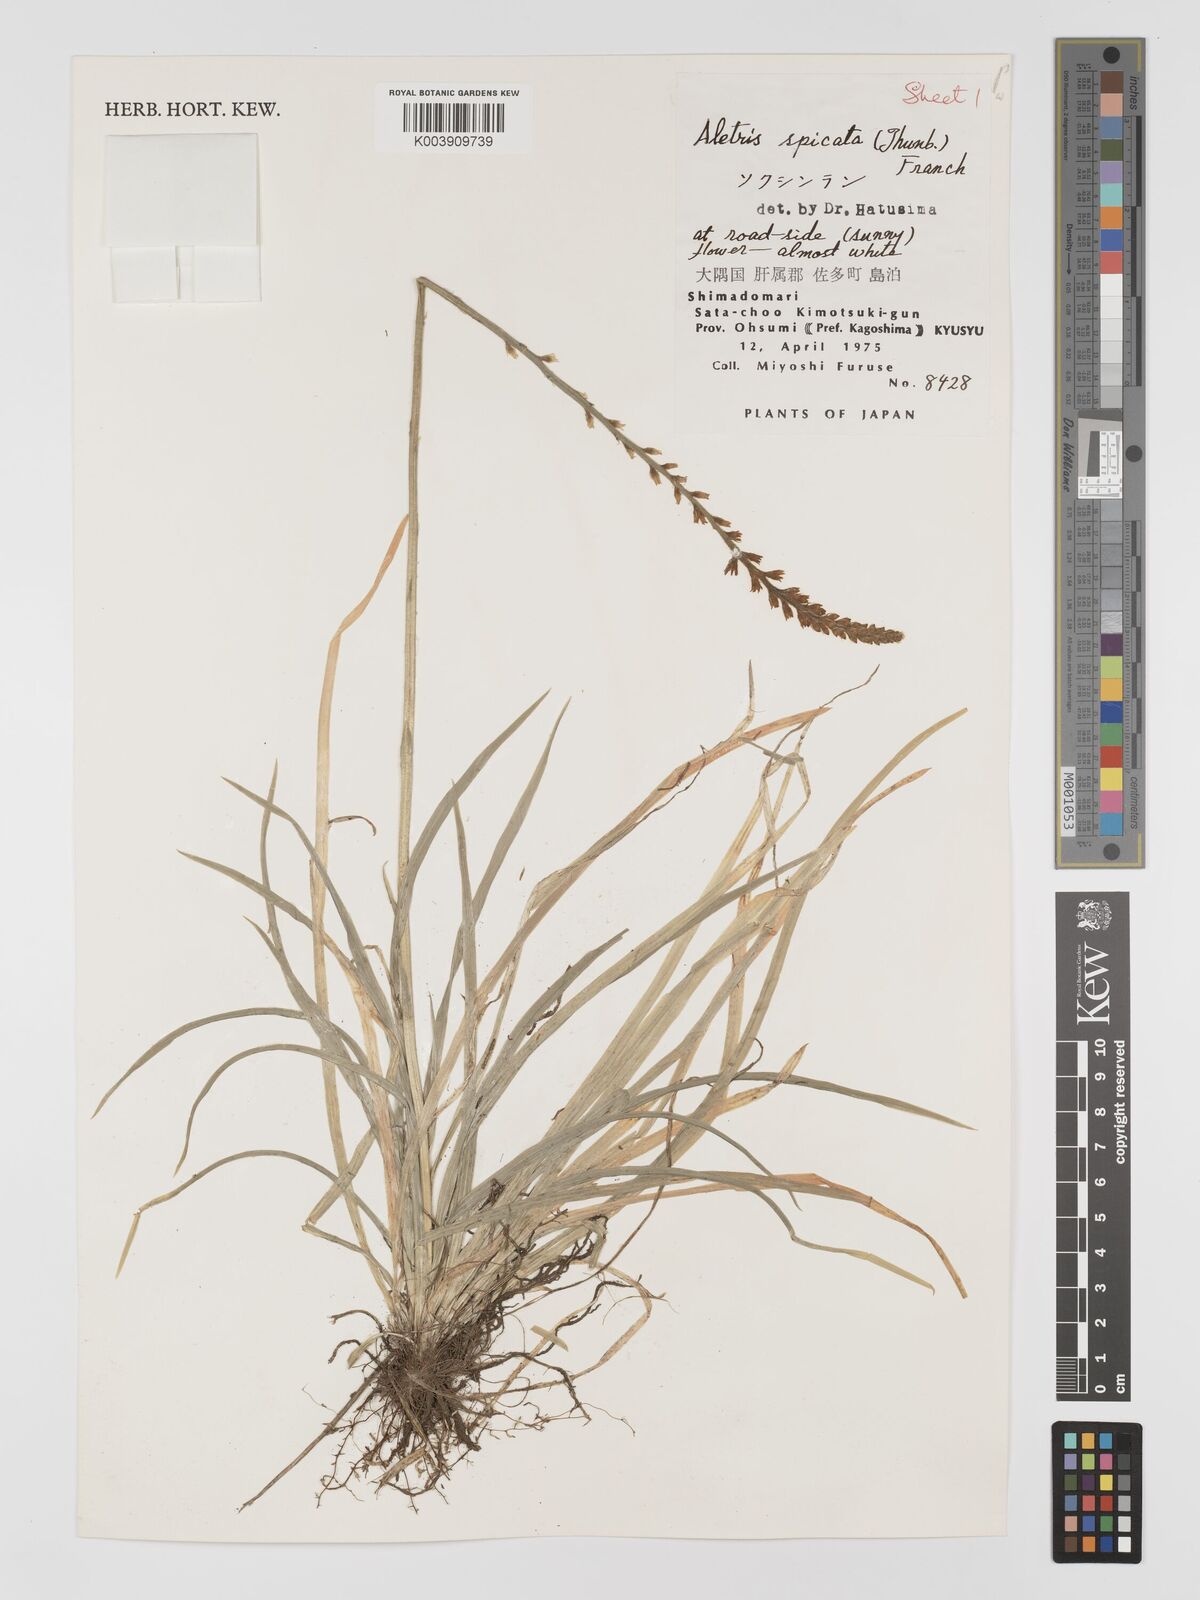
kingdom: Plantae
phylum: Tracheophyta
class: Liliopsida
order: Dioscoreales
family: Nartheciaceae
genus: Aletris
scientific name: Aletris spicata
